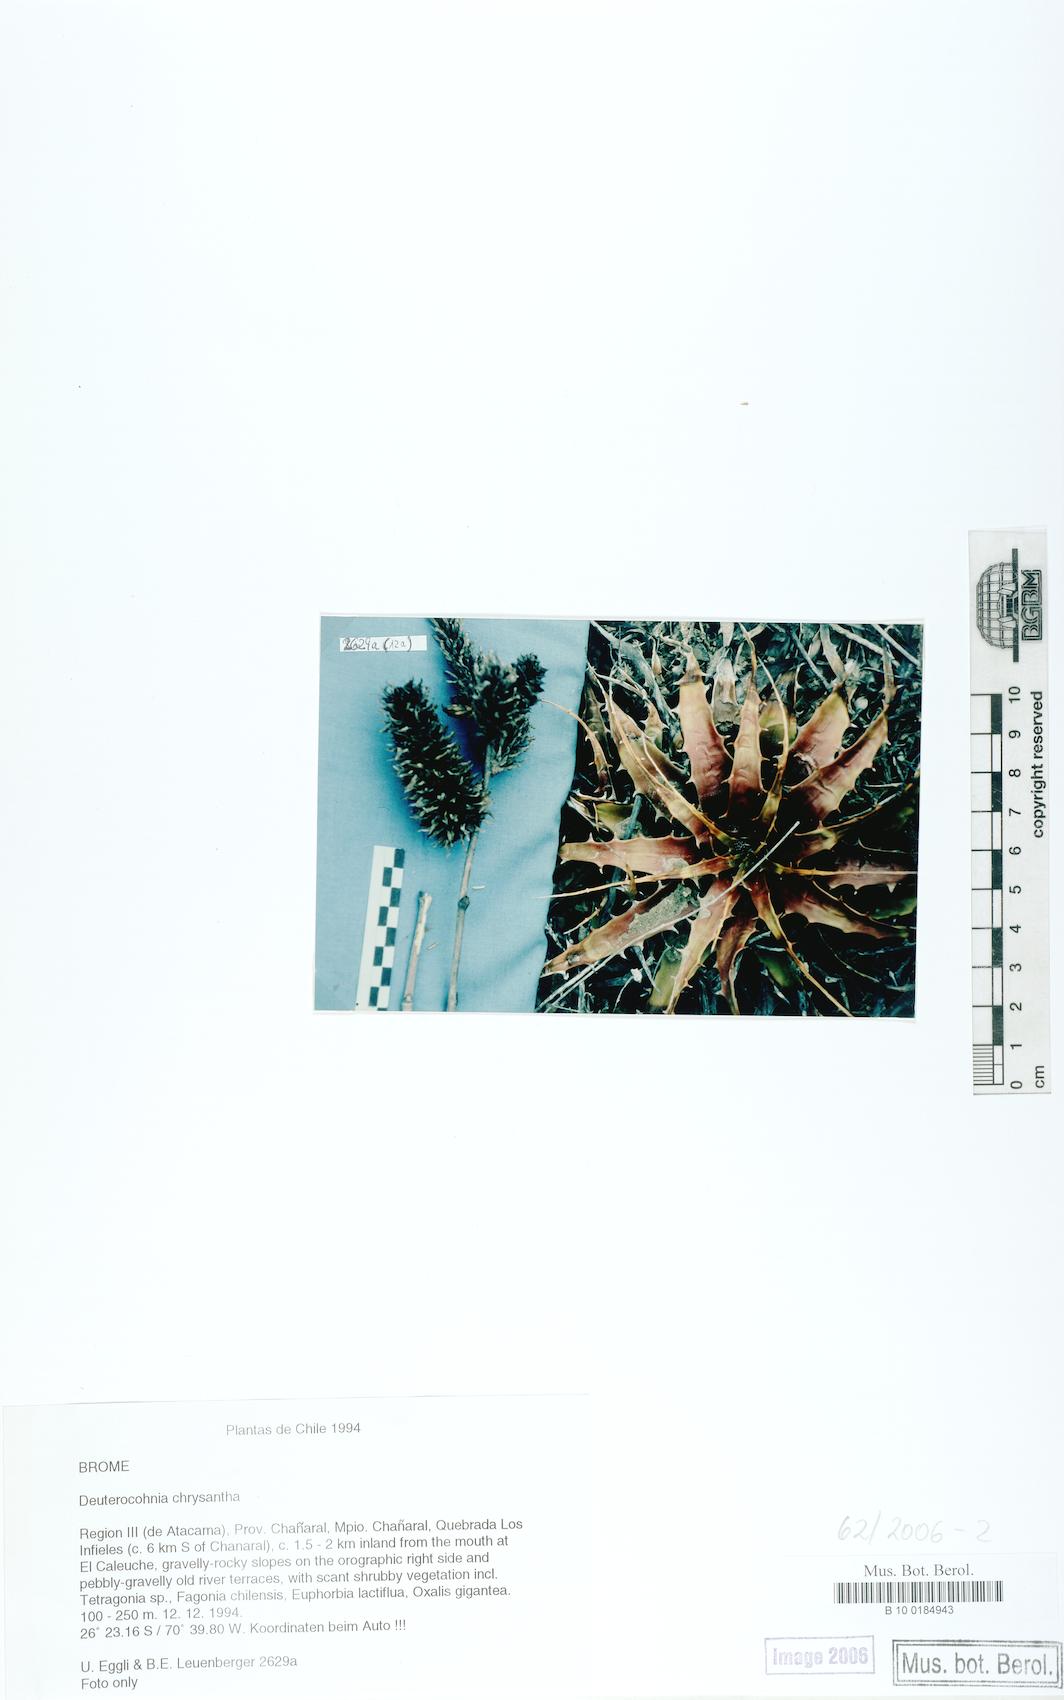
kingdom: Plantae
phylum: Tracheophyta
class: Liliopsida
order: Poales
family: Bromeliaceae
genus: Deuterocohnia
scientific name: Deuterocohnia chrysantha
